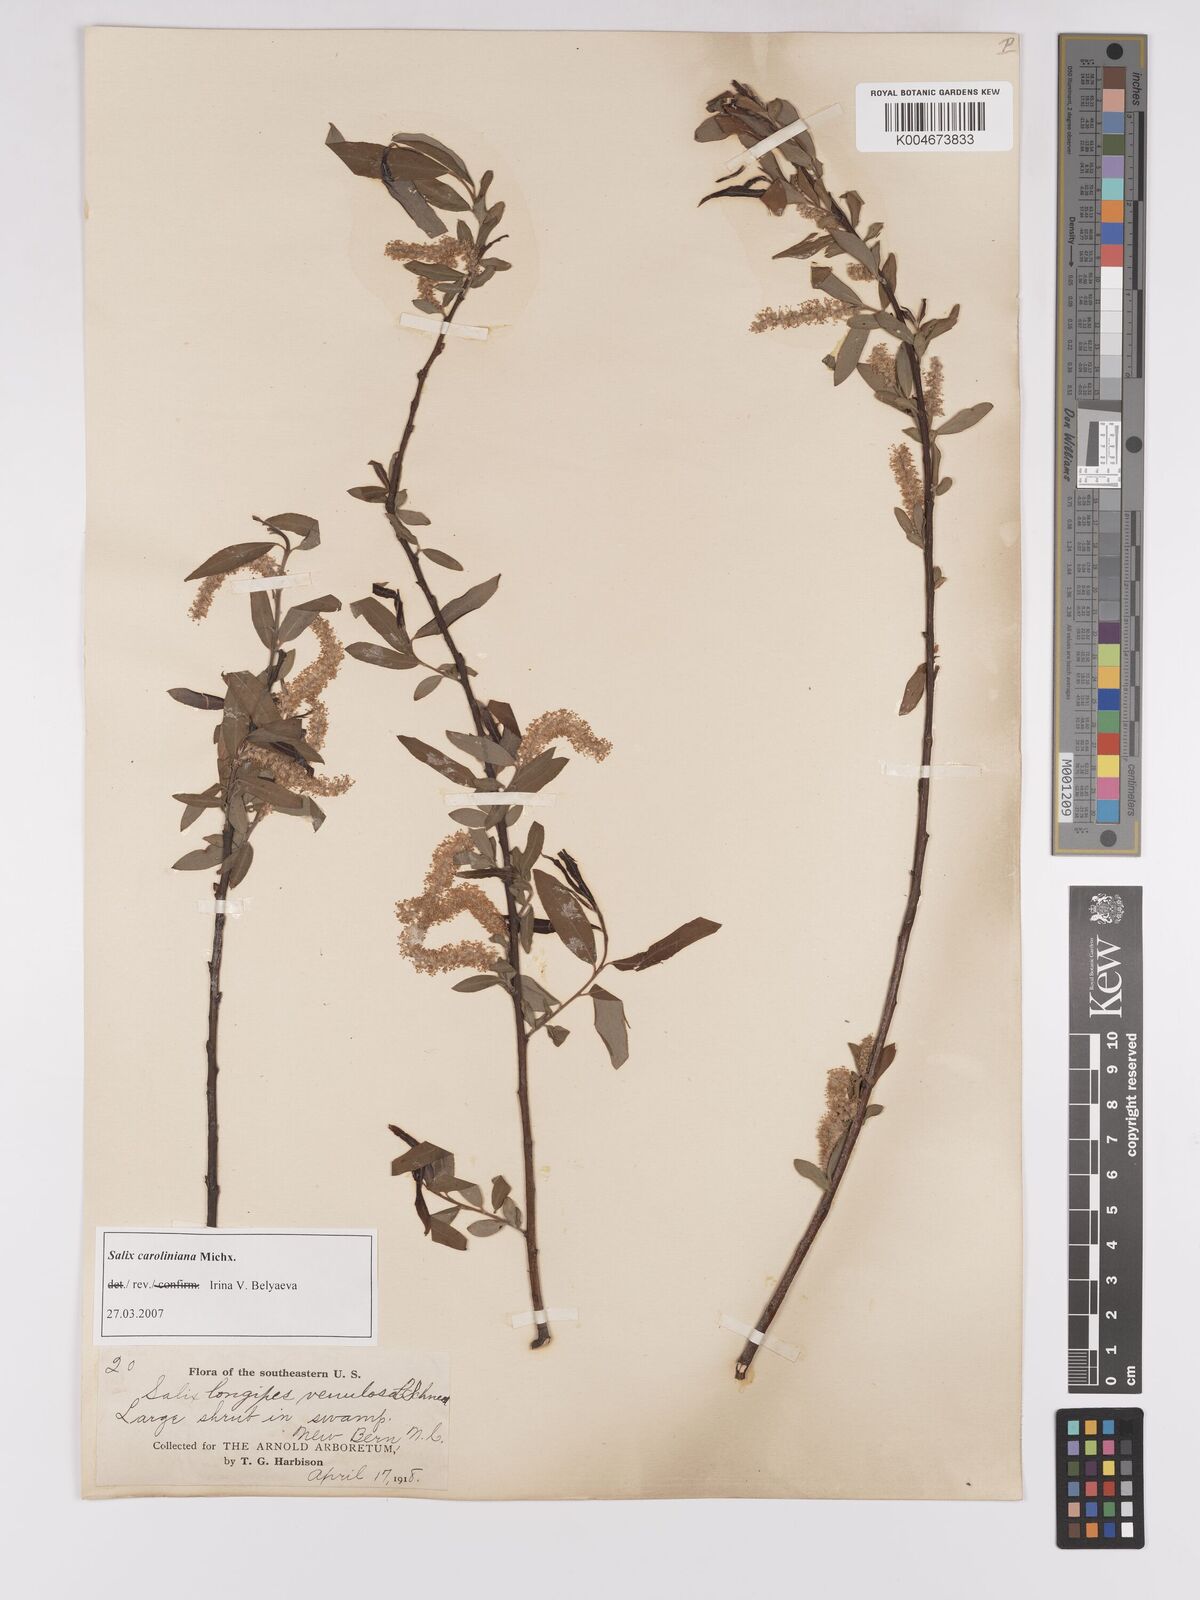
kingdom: Plantae
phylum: Tracheophyta
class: Magnoliopsida
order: Malpighiales
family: Salicaceae
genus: Salix
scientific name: Salix caroliniana
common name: Carolina willow
